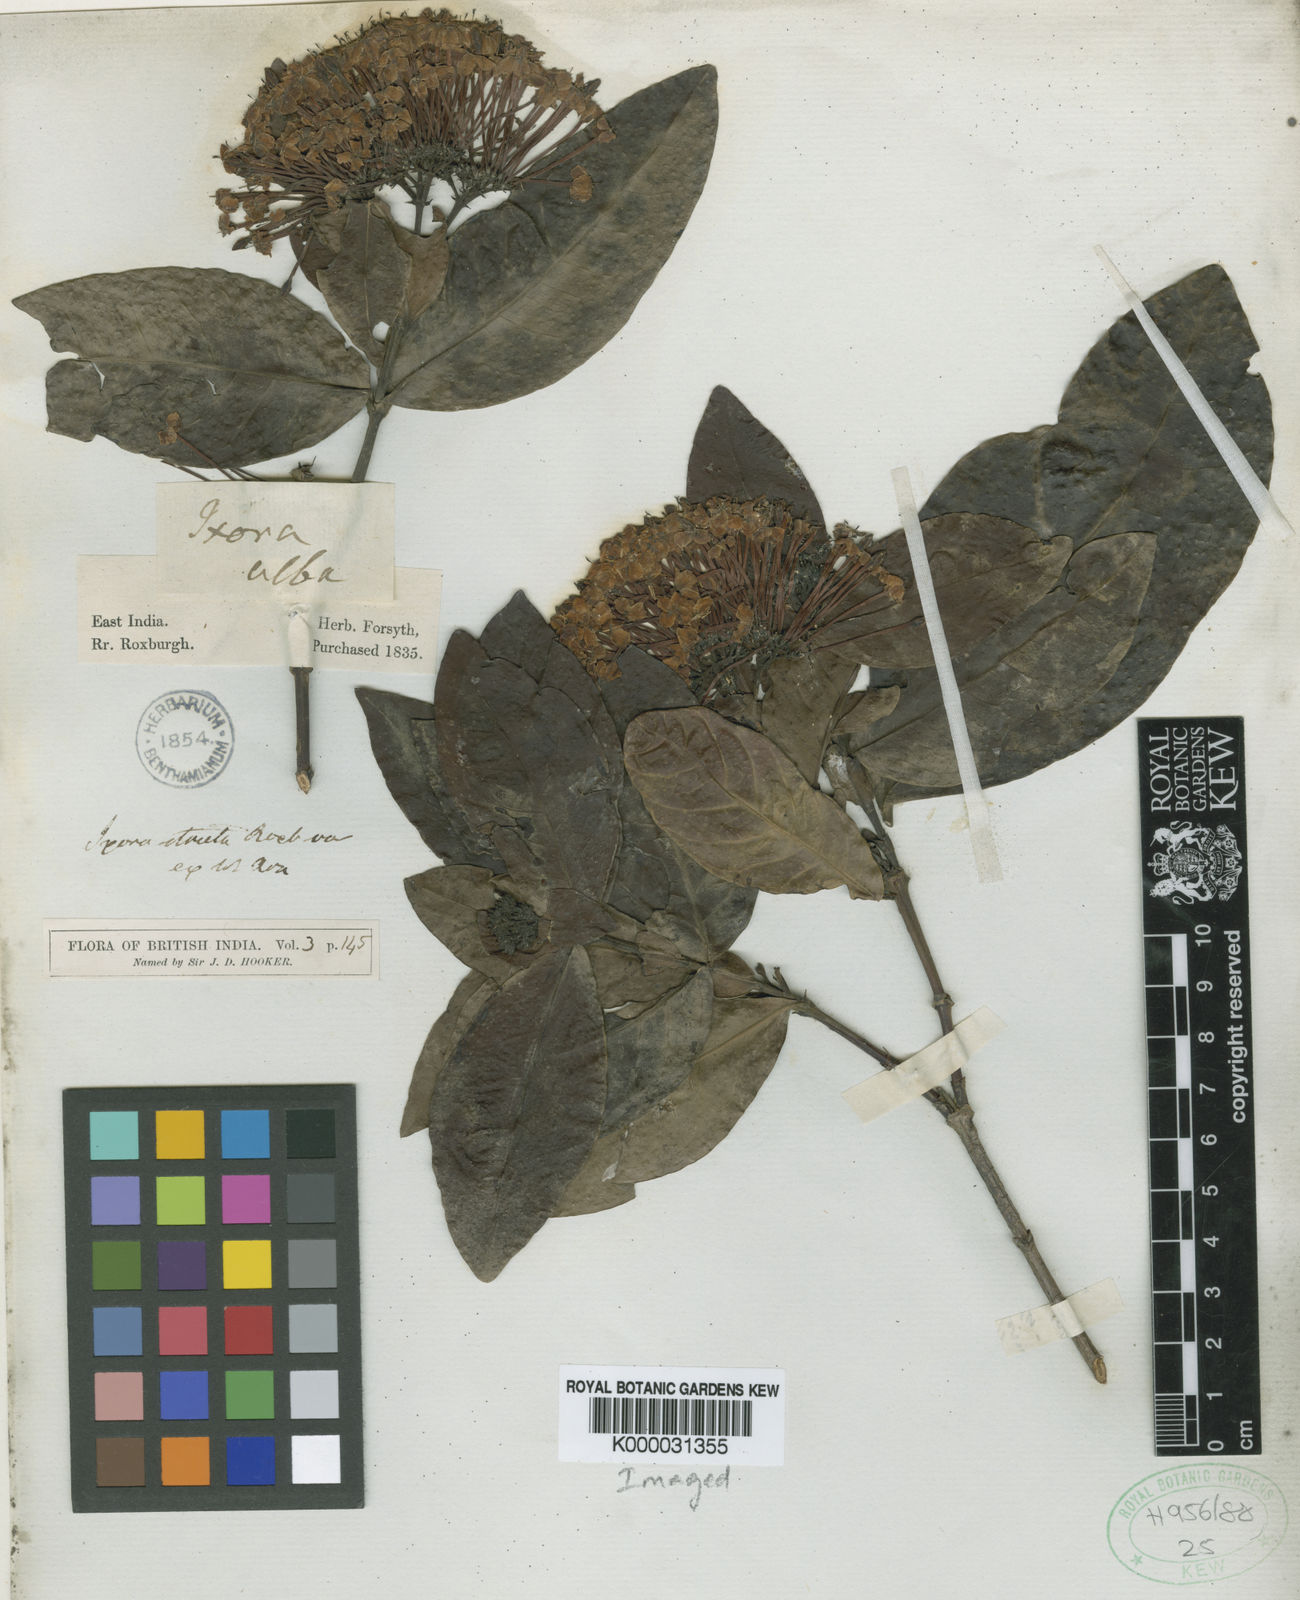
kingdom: Plantae
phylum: Tracheophyta
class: Magnoliopsida
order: Gentianales
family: Rubiaceae
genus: Ixora
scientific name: Ixora chinensis
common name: Chinese ixora
